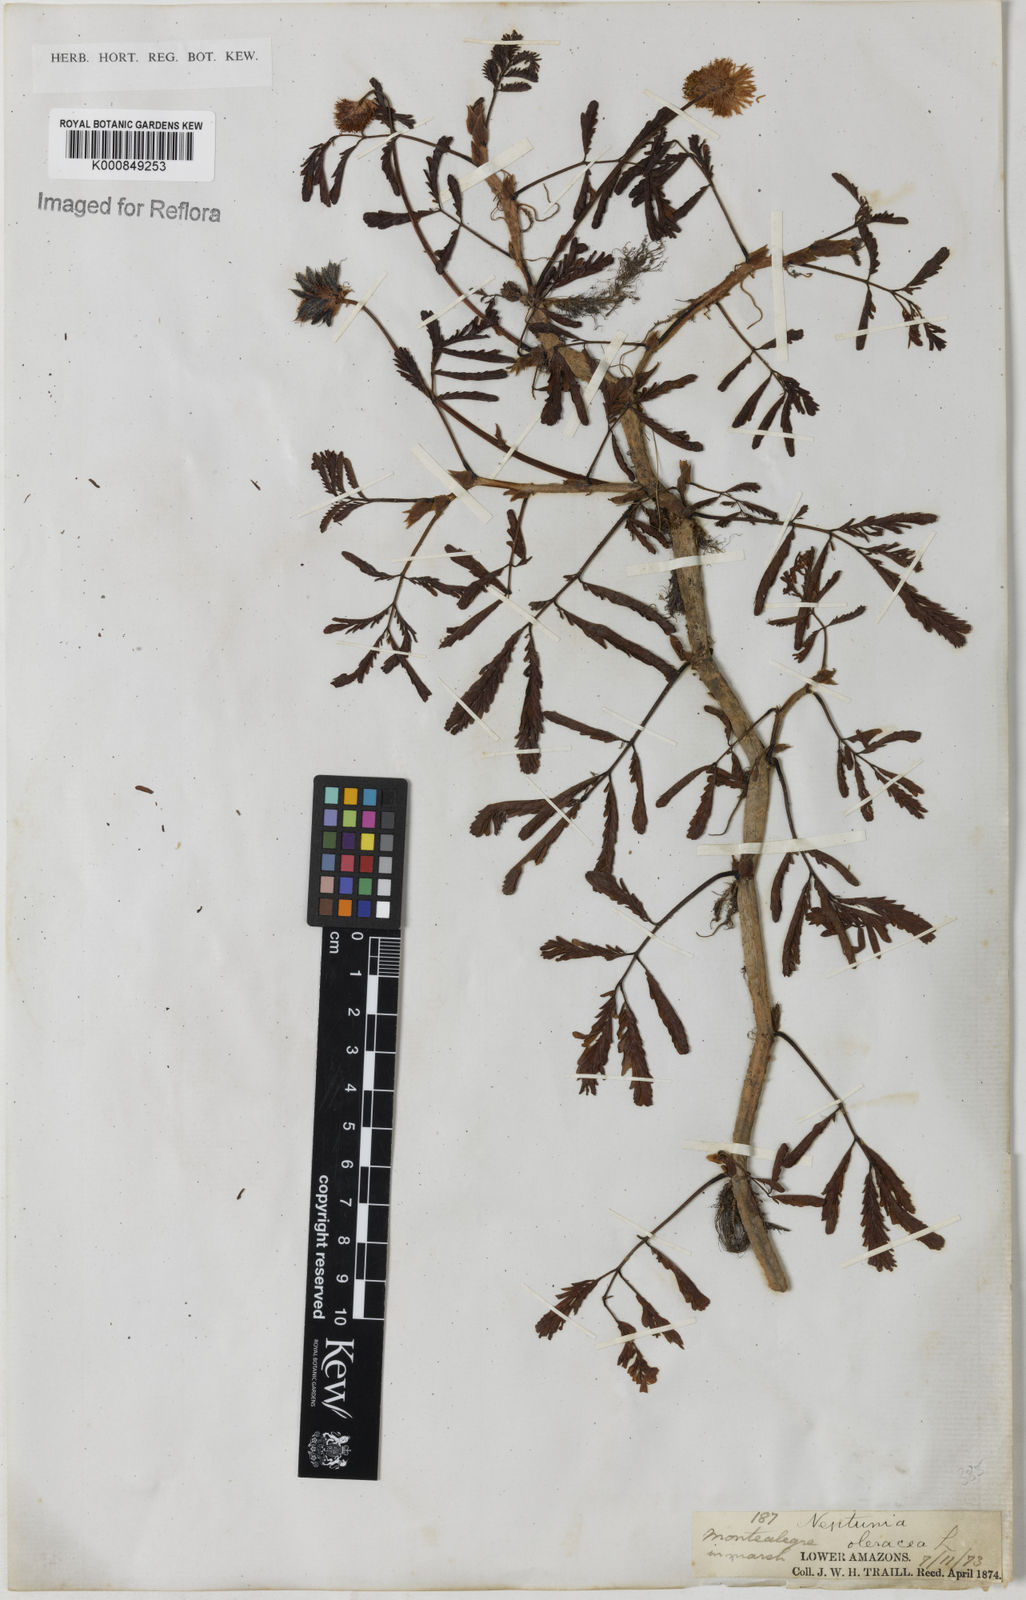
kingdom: Plantae
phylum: Tracheophyta
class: Magnoliopsida
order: Fabales
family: Fabaceae
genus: Neptunia
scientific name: Neptunia prostrata
